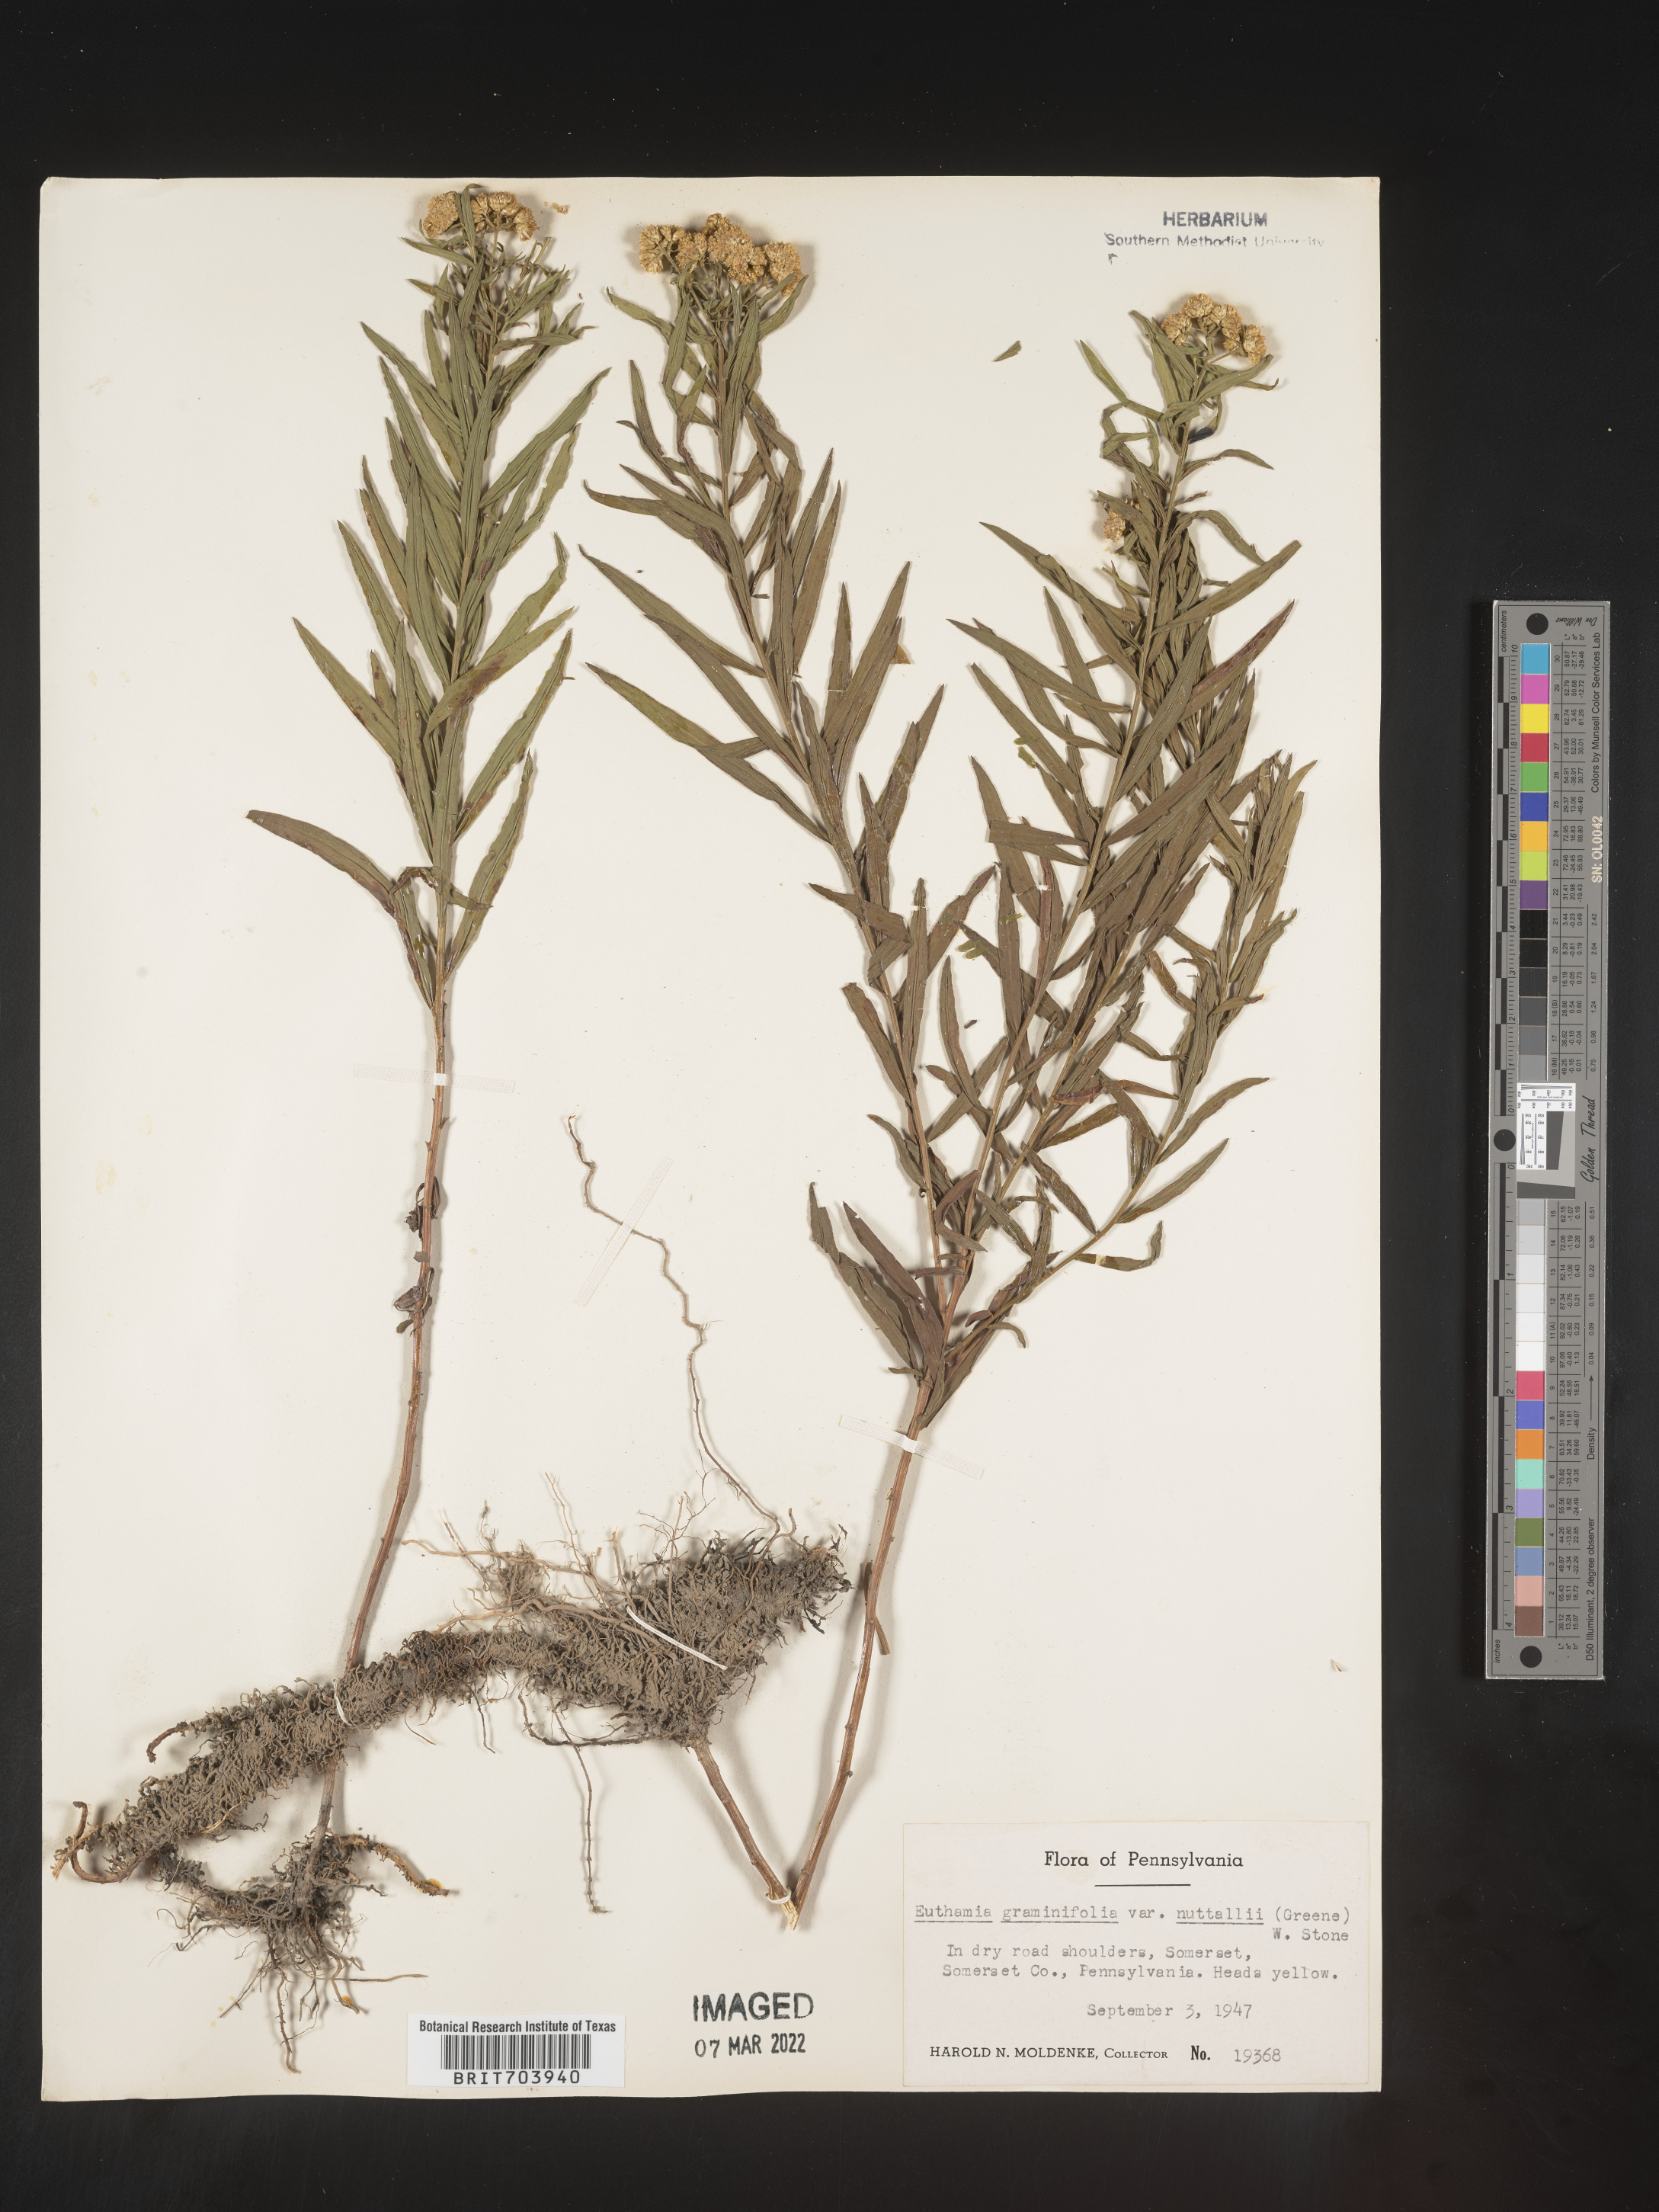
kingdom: Plantae
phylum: Tracheophyta
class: Magnoliopsida
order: Asterales
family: Asteraceae
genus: Euthamia
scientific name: Euthamia graminifolia
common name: Common goldentop
